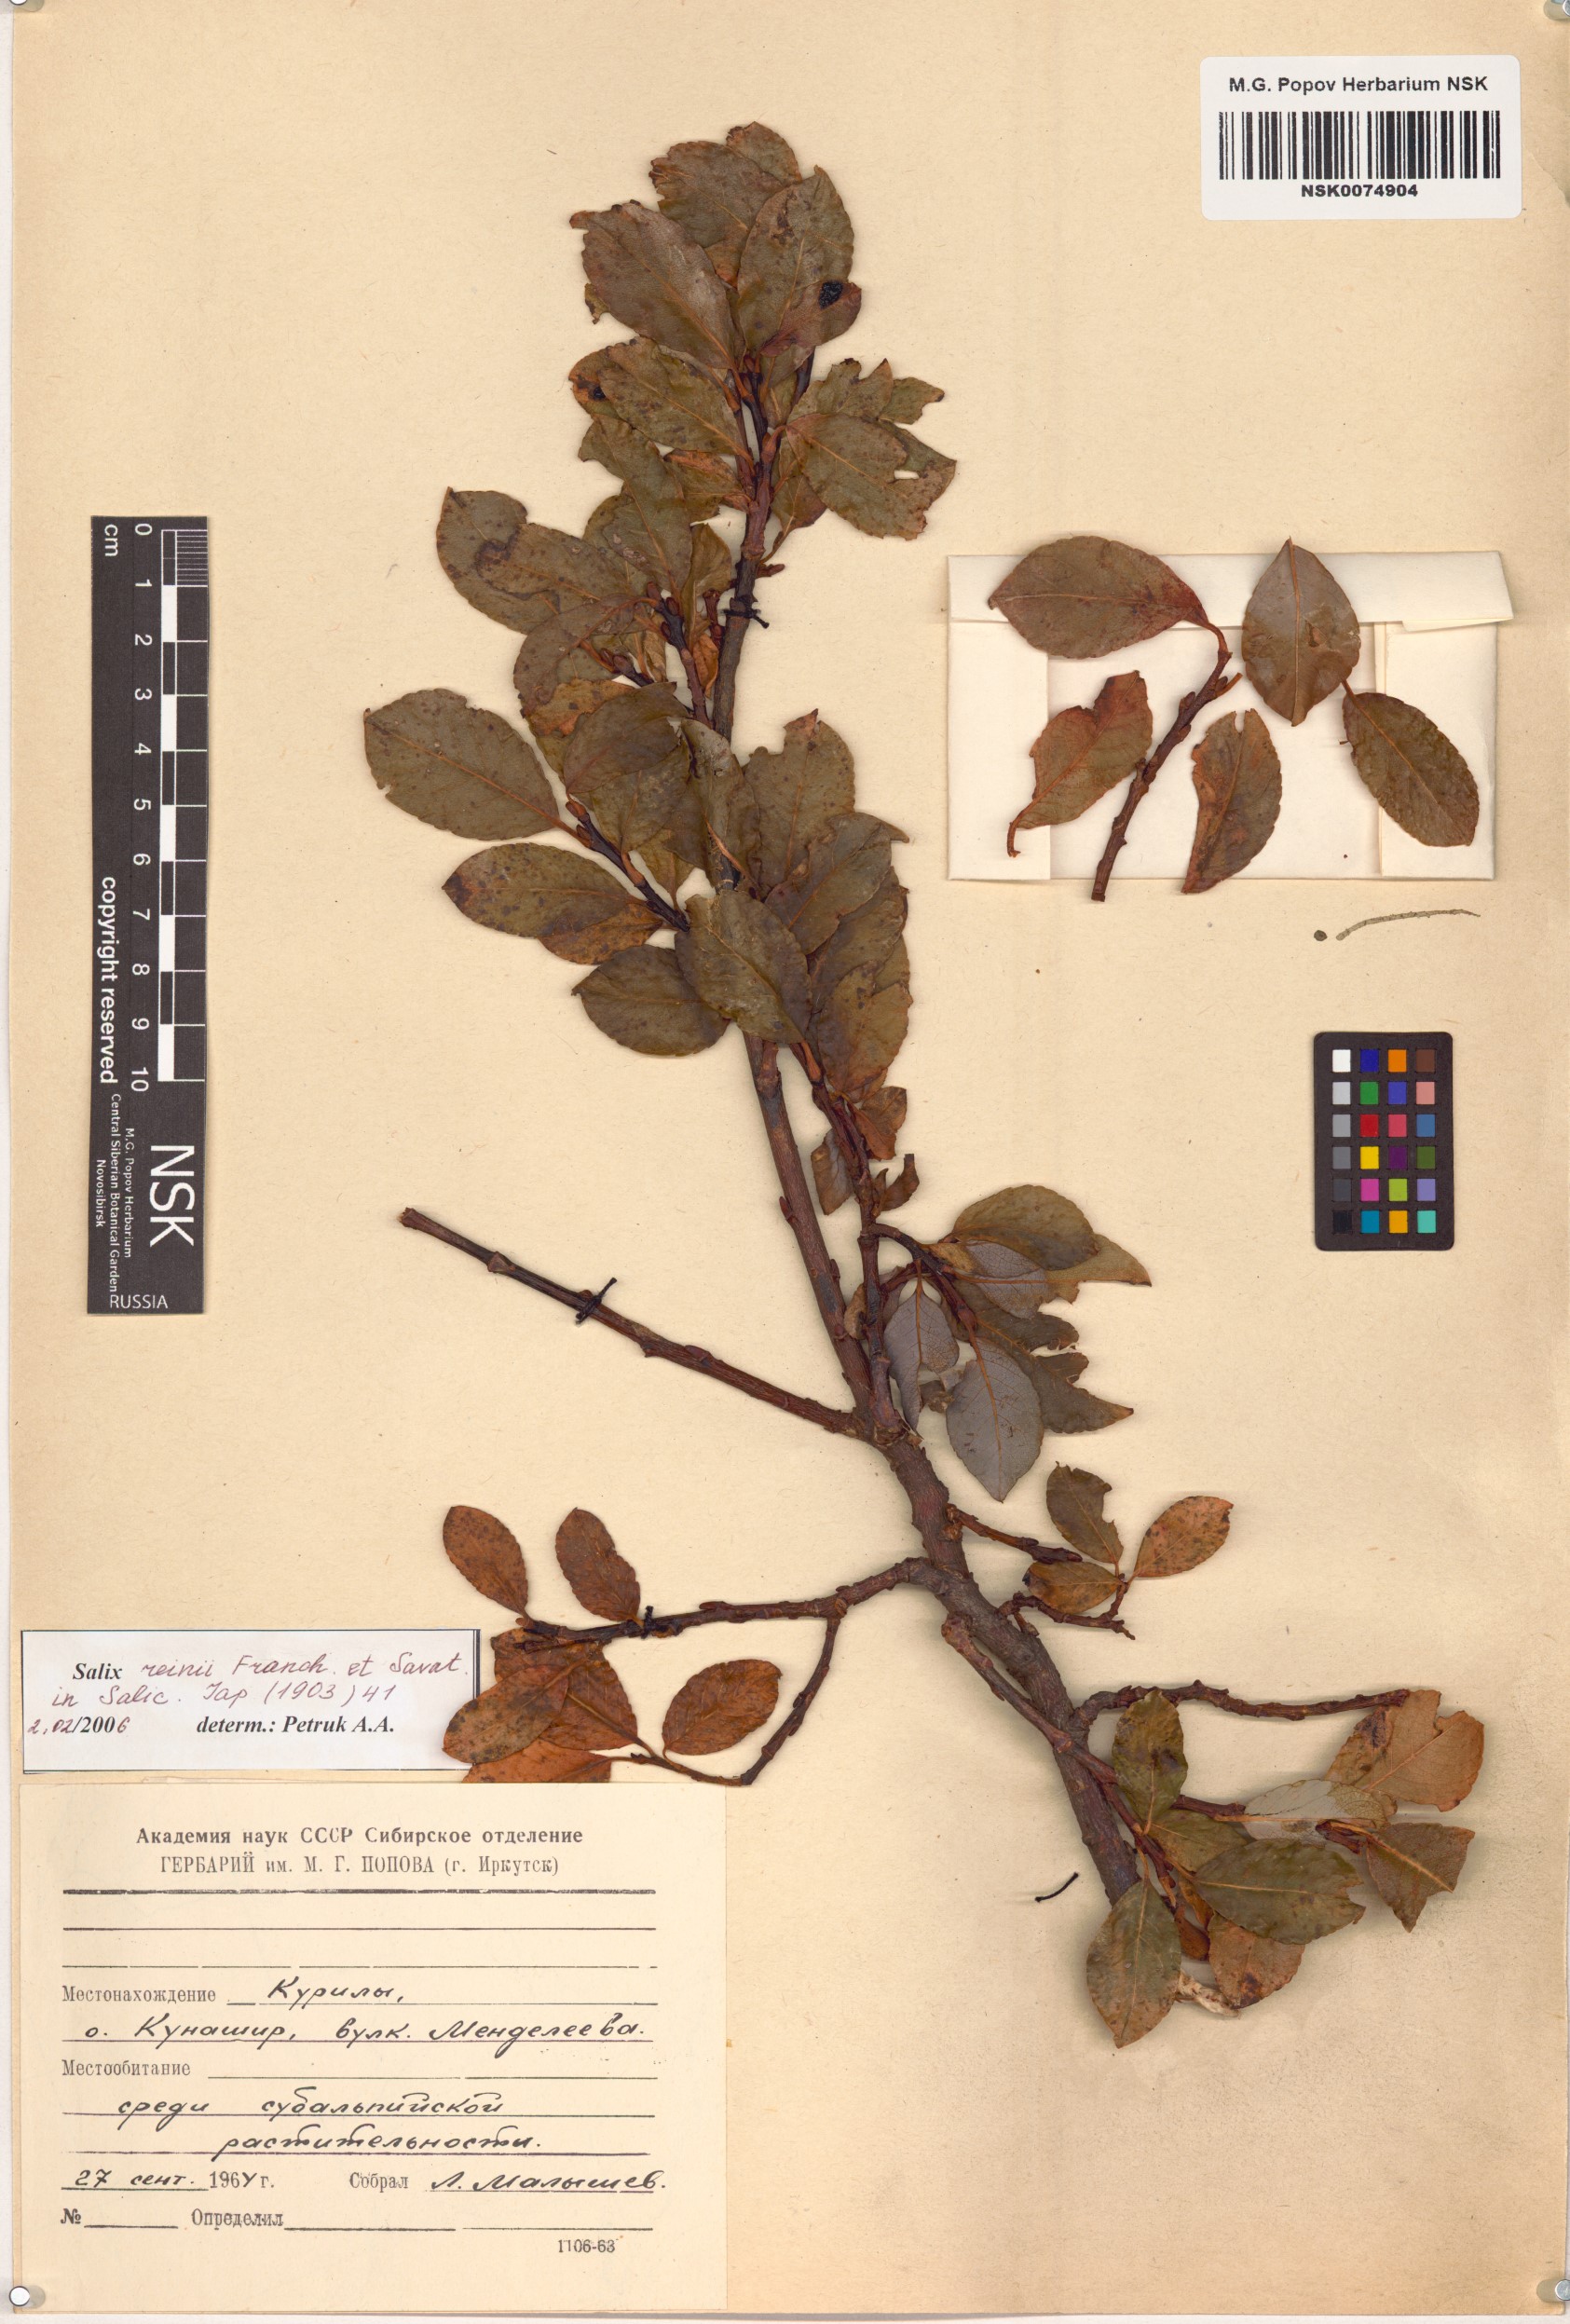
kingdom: Plantae
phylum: Tracheophyta
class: Magnoliopsida
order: Malpighiales
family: Salicaceae
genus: Salix
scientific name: Salix reinii
